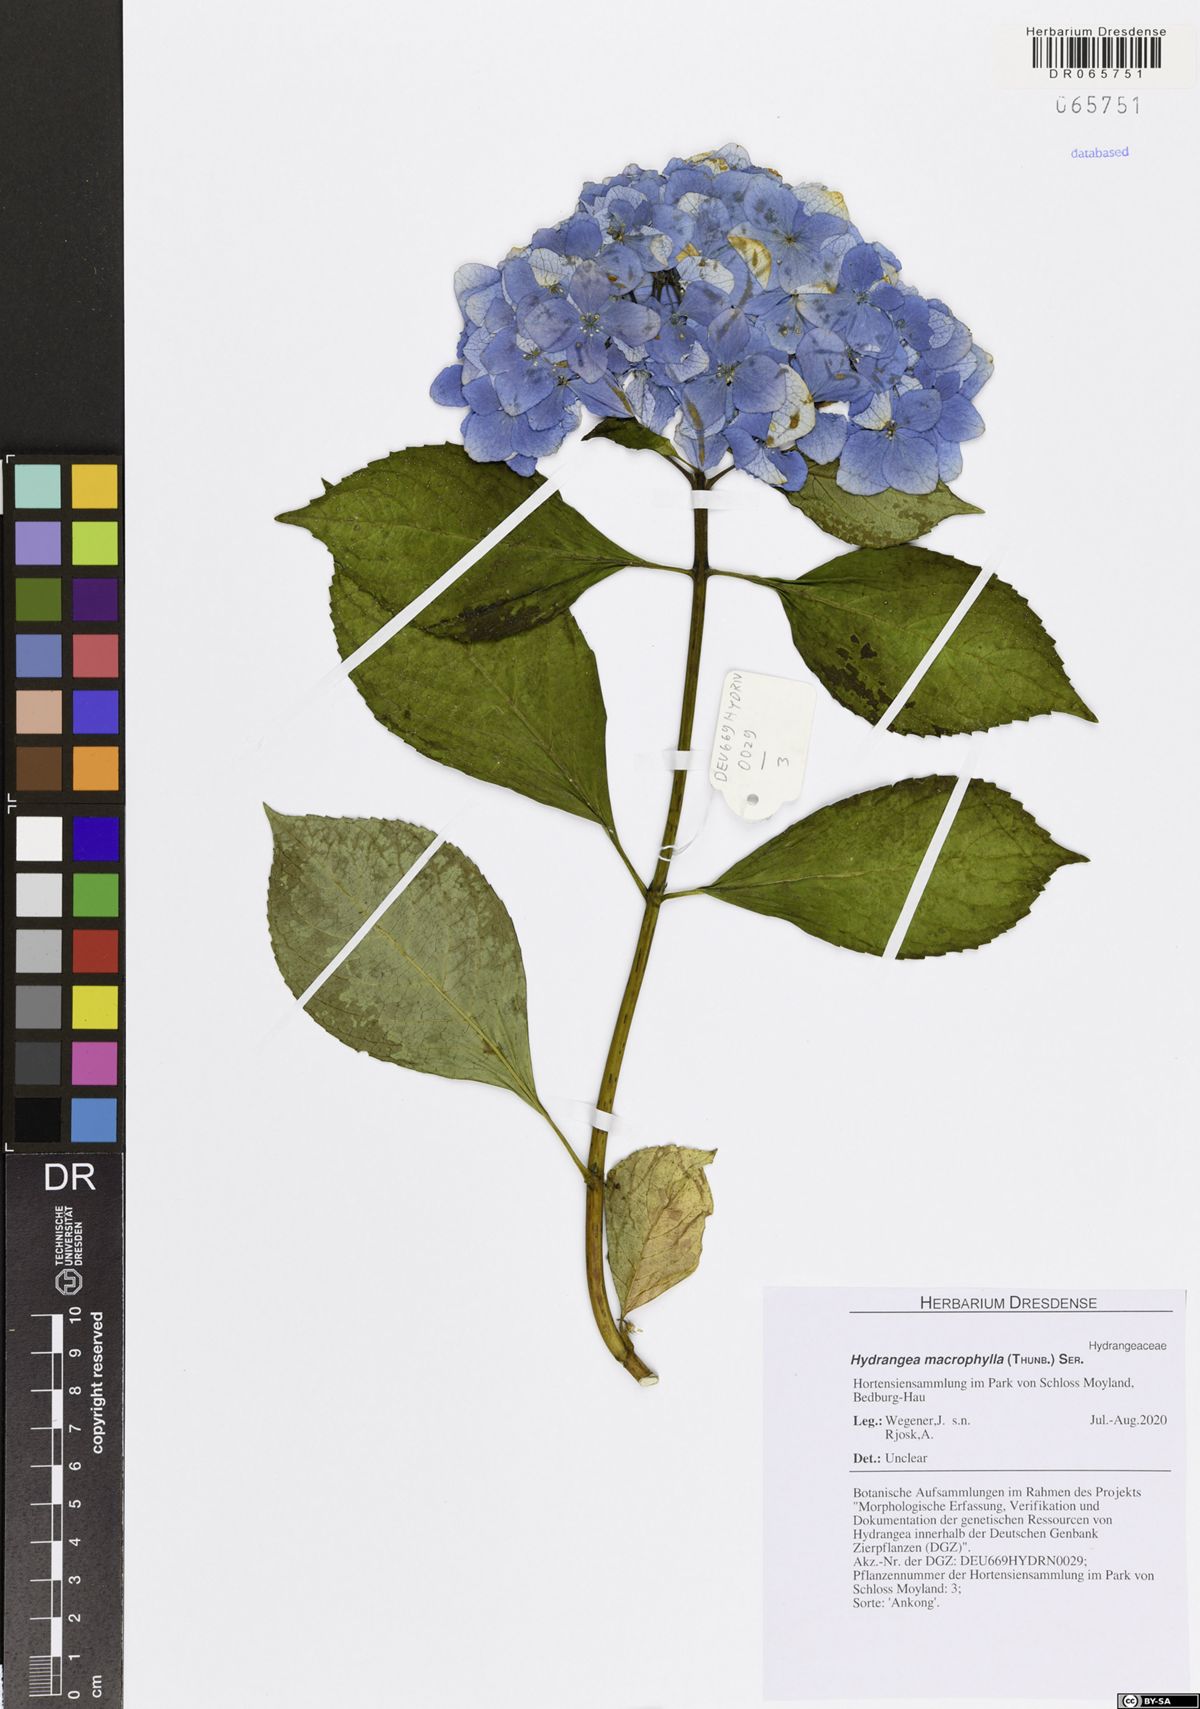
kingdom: Plantae
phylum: Tracheophyta
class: Magnoliopsida
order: Cornales
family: Hydrangeaceae
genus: Hydrangea
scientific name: Hydrangea macrophylla
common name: Hydrangea
